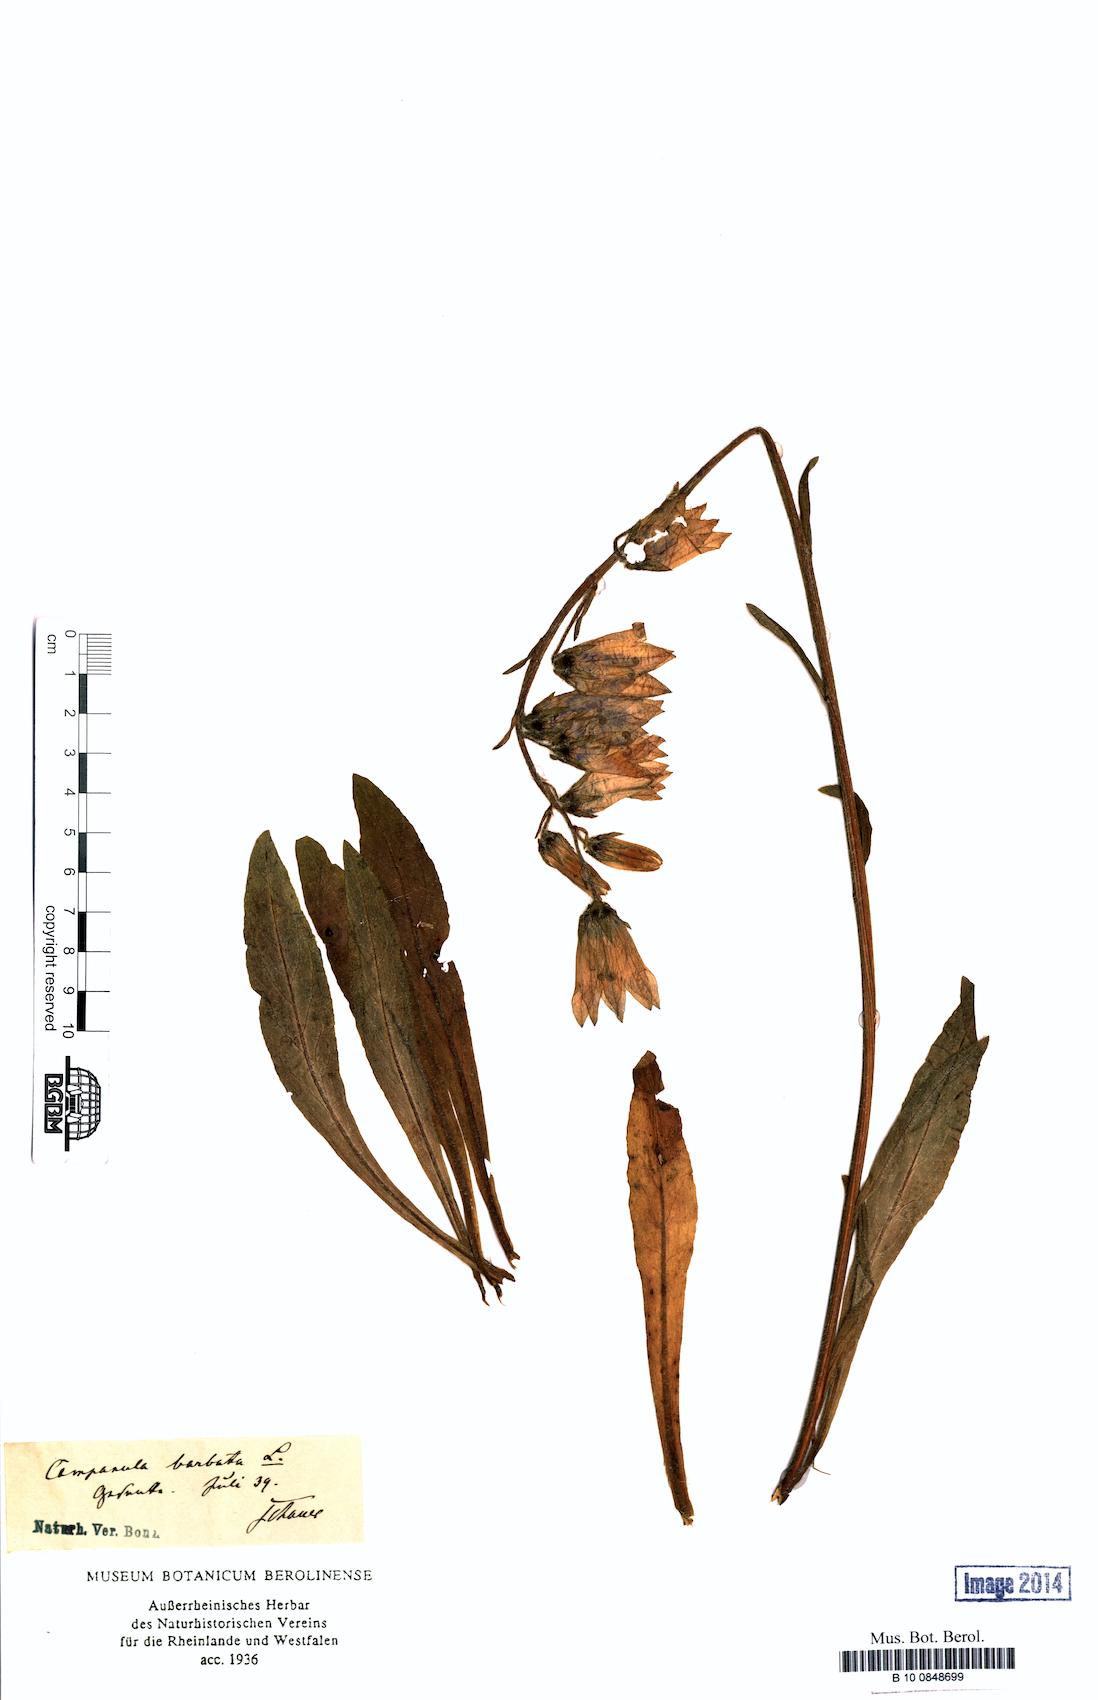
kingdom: Plantae
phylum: Tracheophyta
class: Magnoliopsida
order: Asterales
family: Campanulaceae
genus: Campanula
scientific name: Campanula barbata
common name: Bearded bellflower
